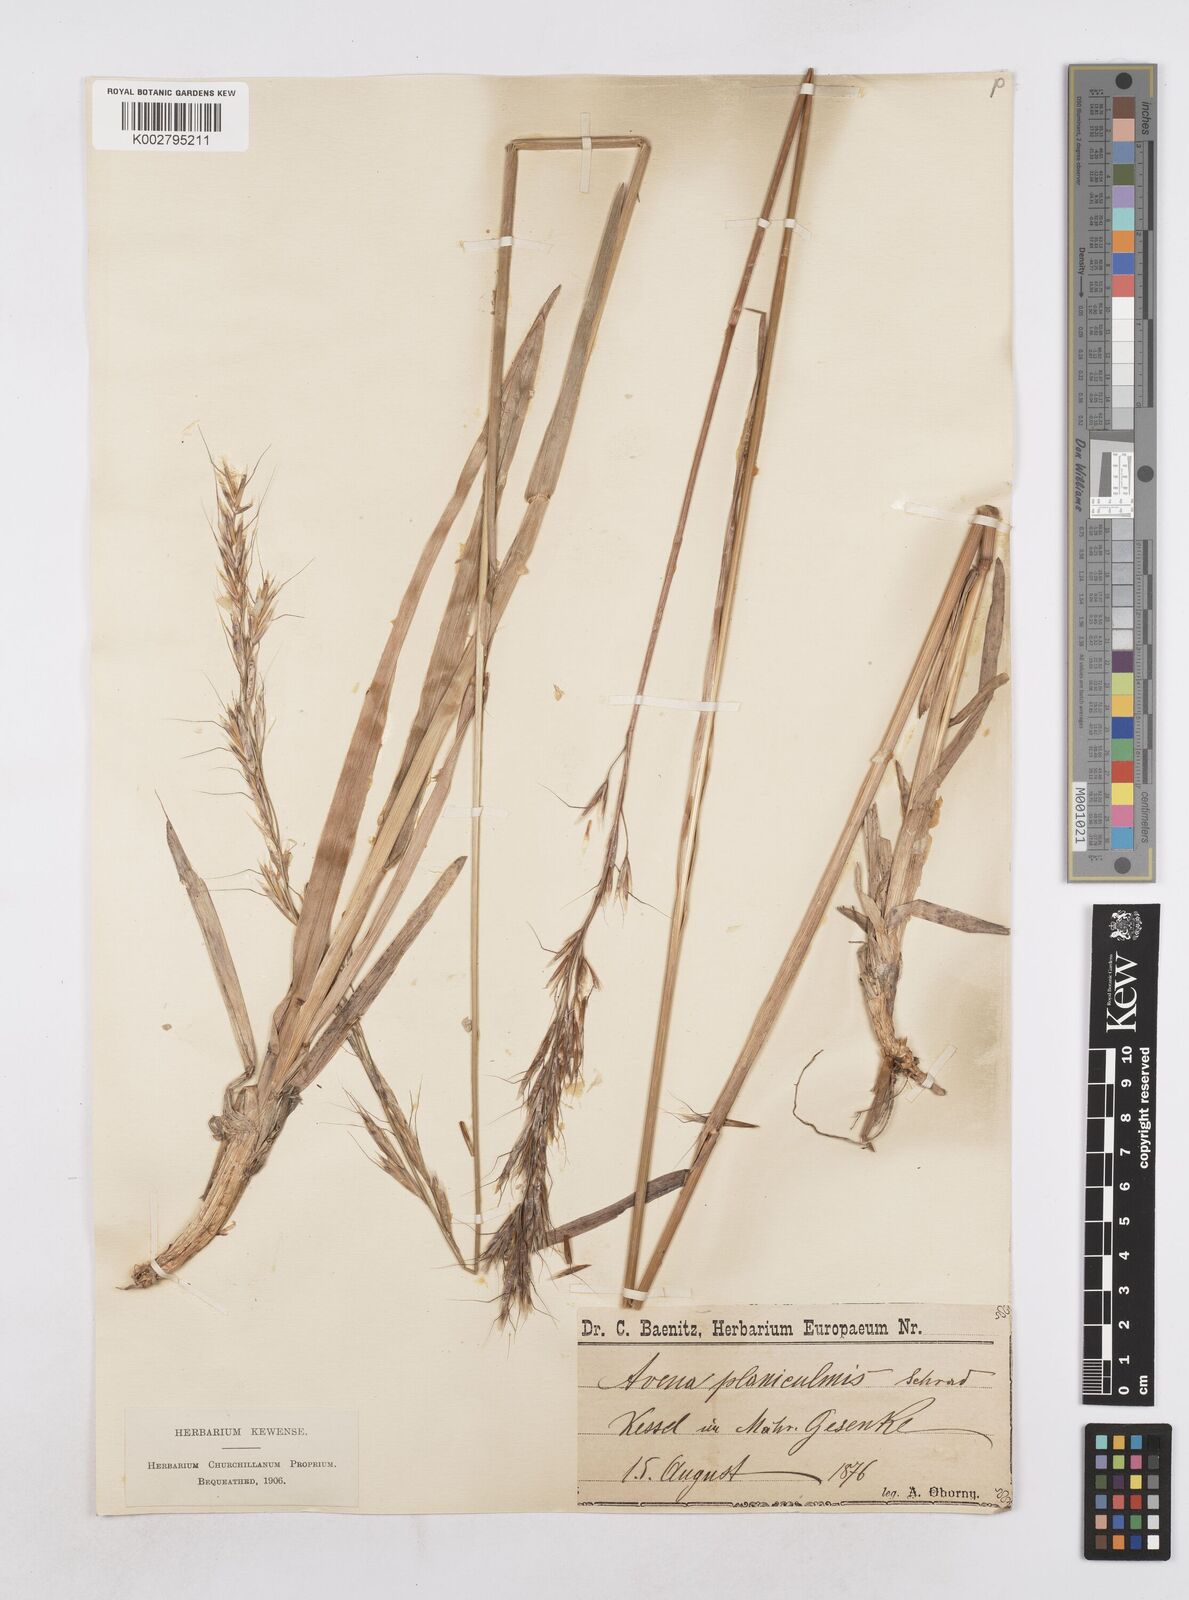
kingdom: Plantae
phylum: Tracheophyta
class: Liliopsida
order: Poales
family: Poaceae
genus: Helictochloa
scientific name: Helictochloa planiculmis
